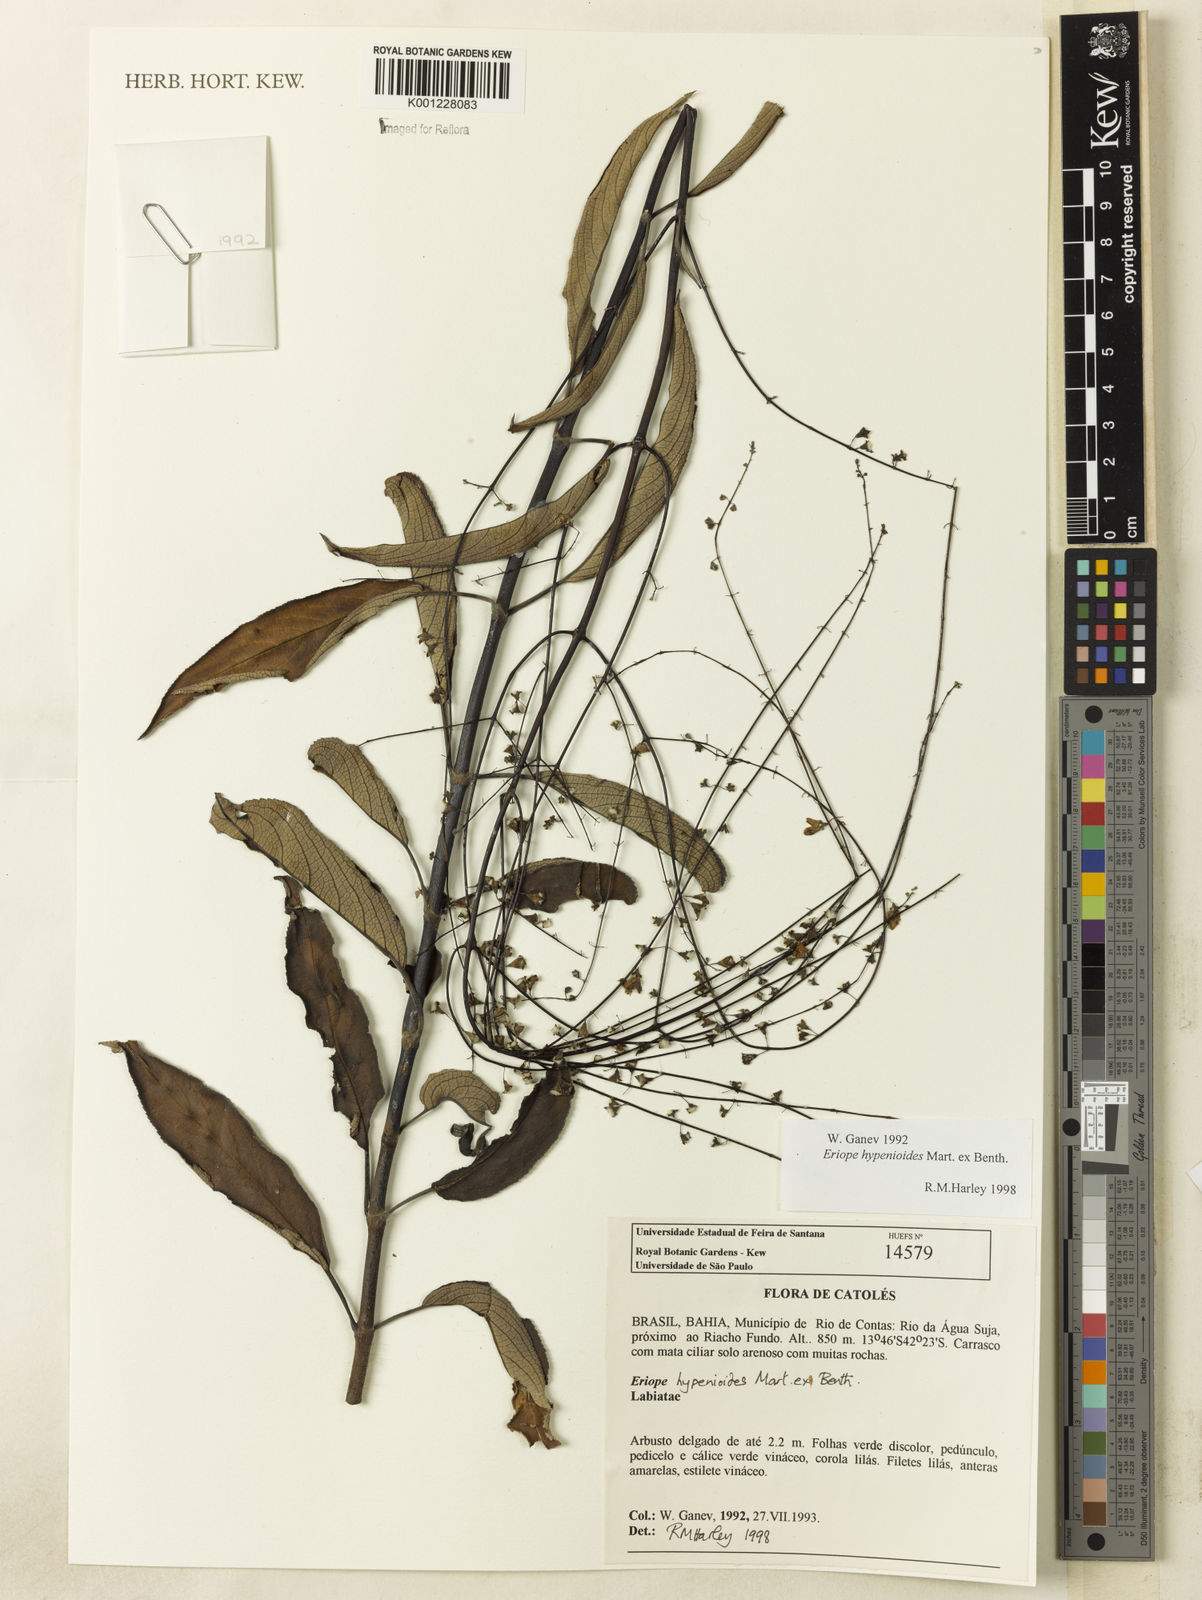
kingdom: Plantae
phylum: Tracheophyta
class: Magnoliopsida
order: Lamiales
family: Lamiaceae
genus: Eriope
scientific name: Eriope hypenioides
